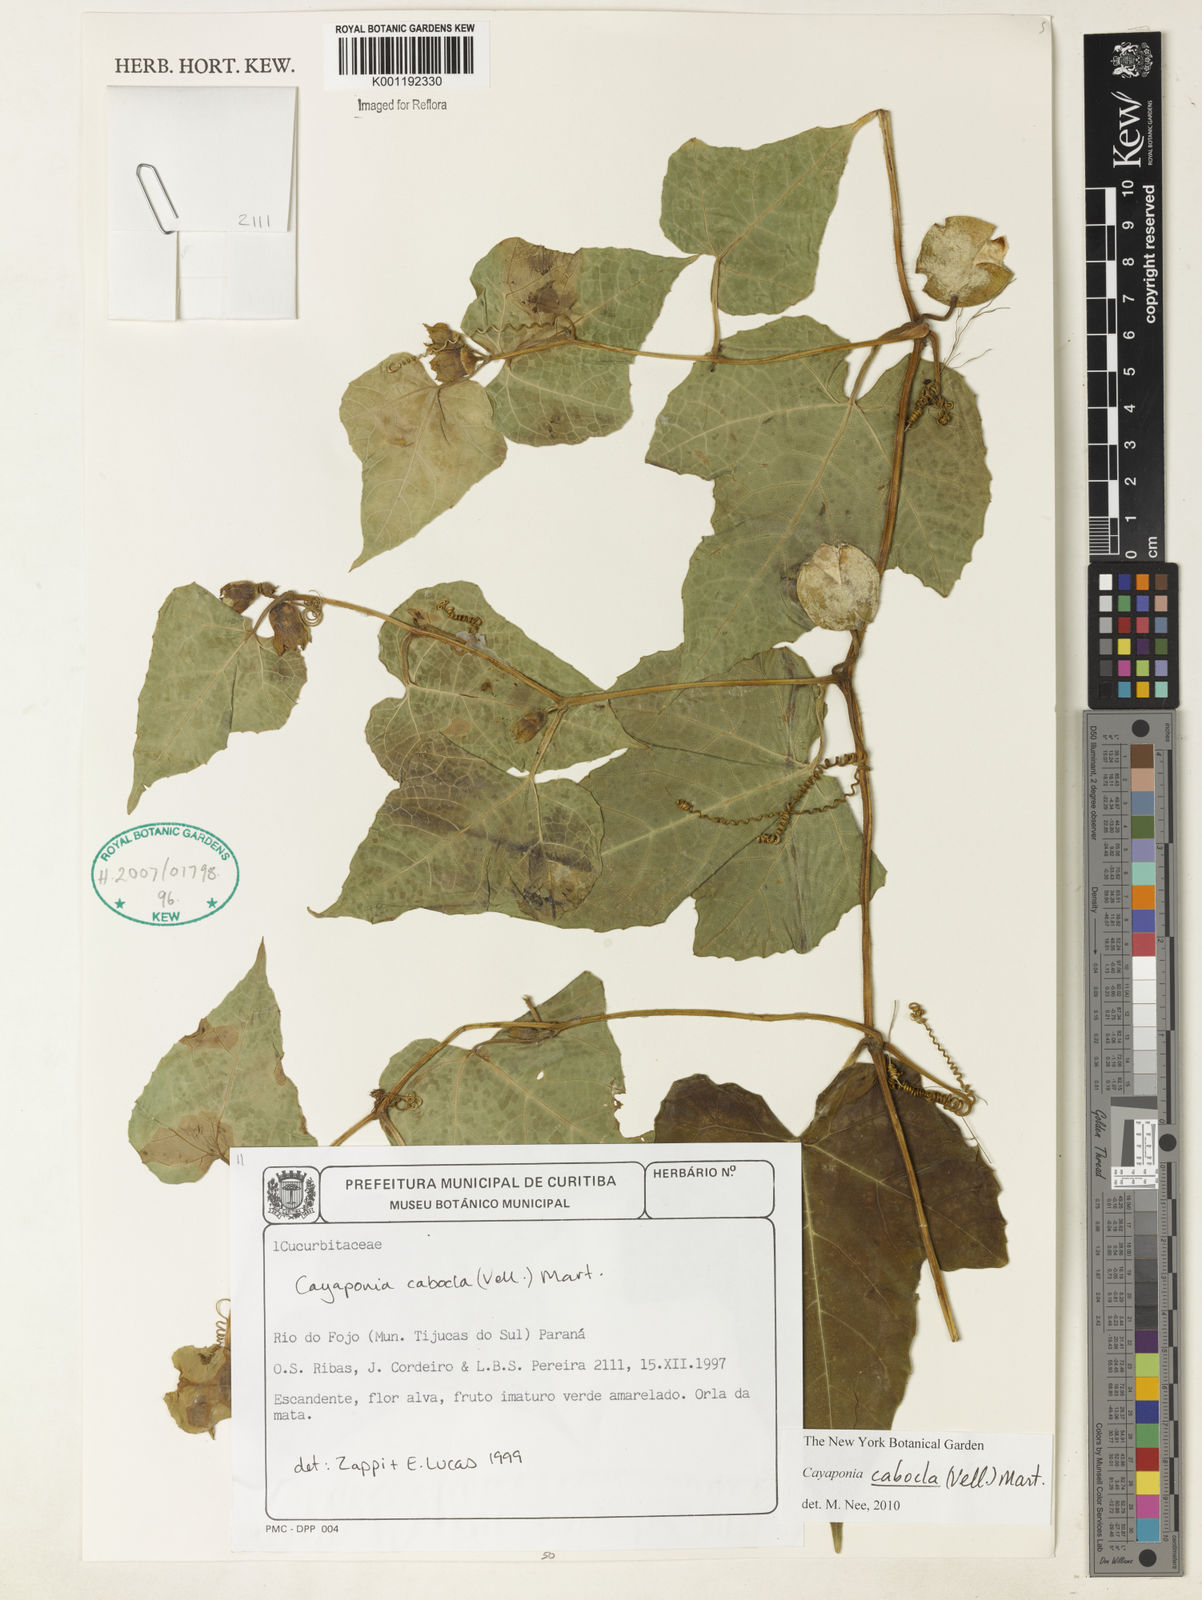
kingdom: Plantae
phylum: Tracheophyta
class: Magnoliopsida
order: Cucurbitales
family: Cucurbitaceae
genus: Cayaponia
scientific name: Cayaponia cabocla
